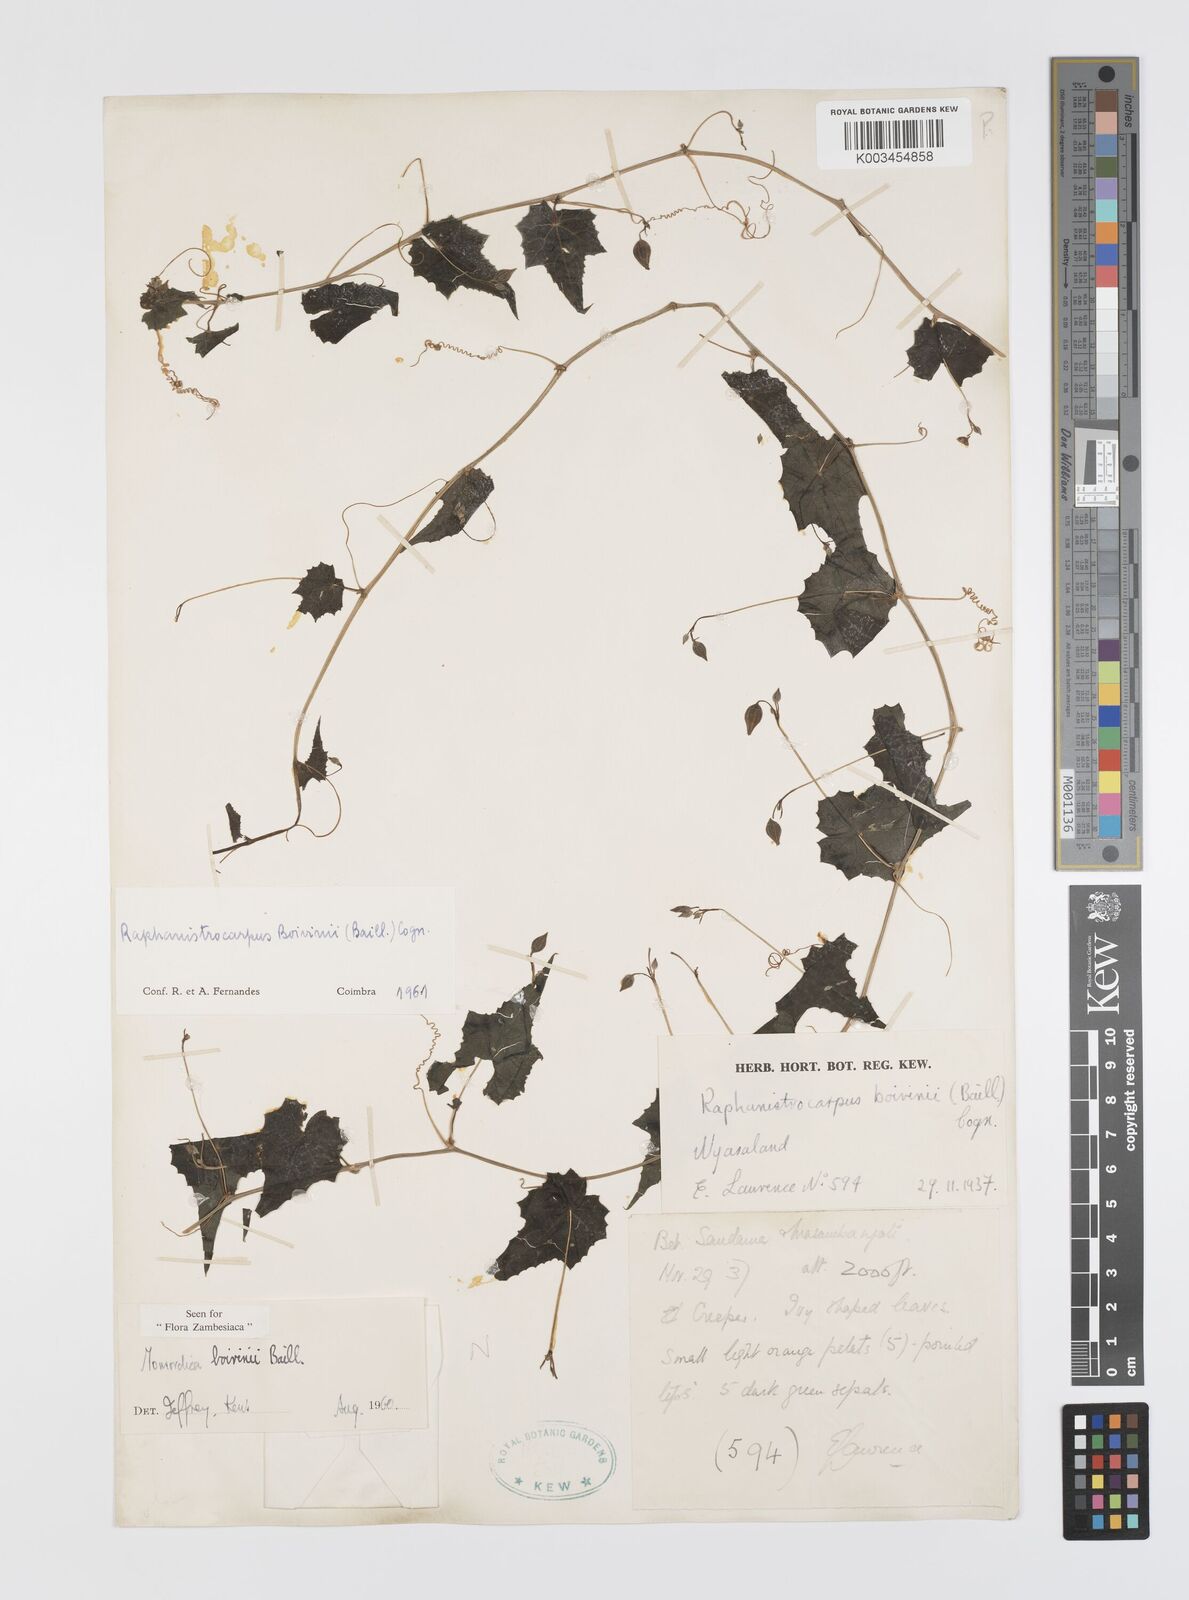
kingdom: Plantae
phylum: Tracheophyta
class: Magnoliopsida
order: Cucurbitales
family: Cucurbitaceae
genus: Momordica
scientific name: Momordica boivinii
